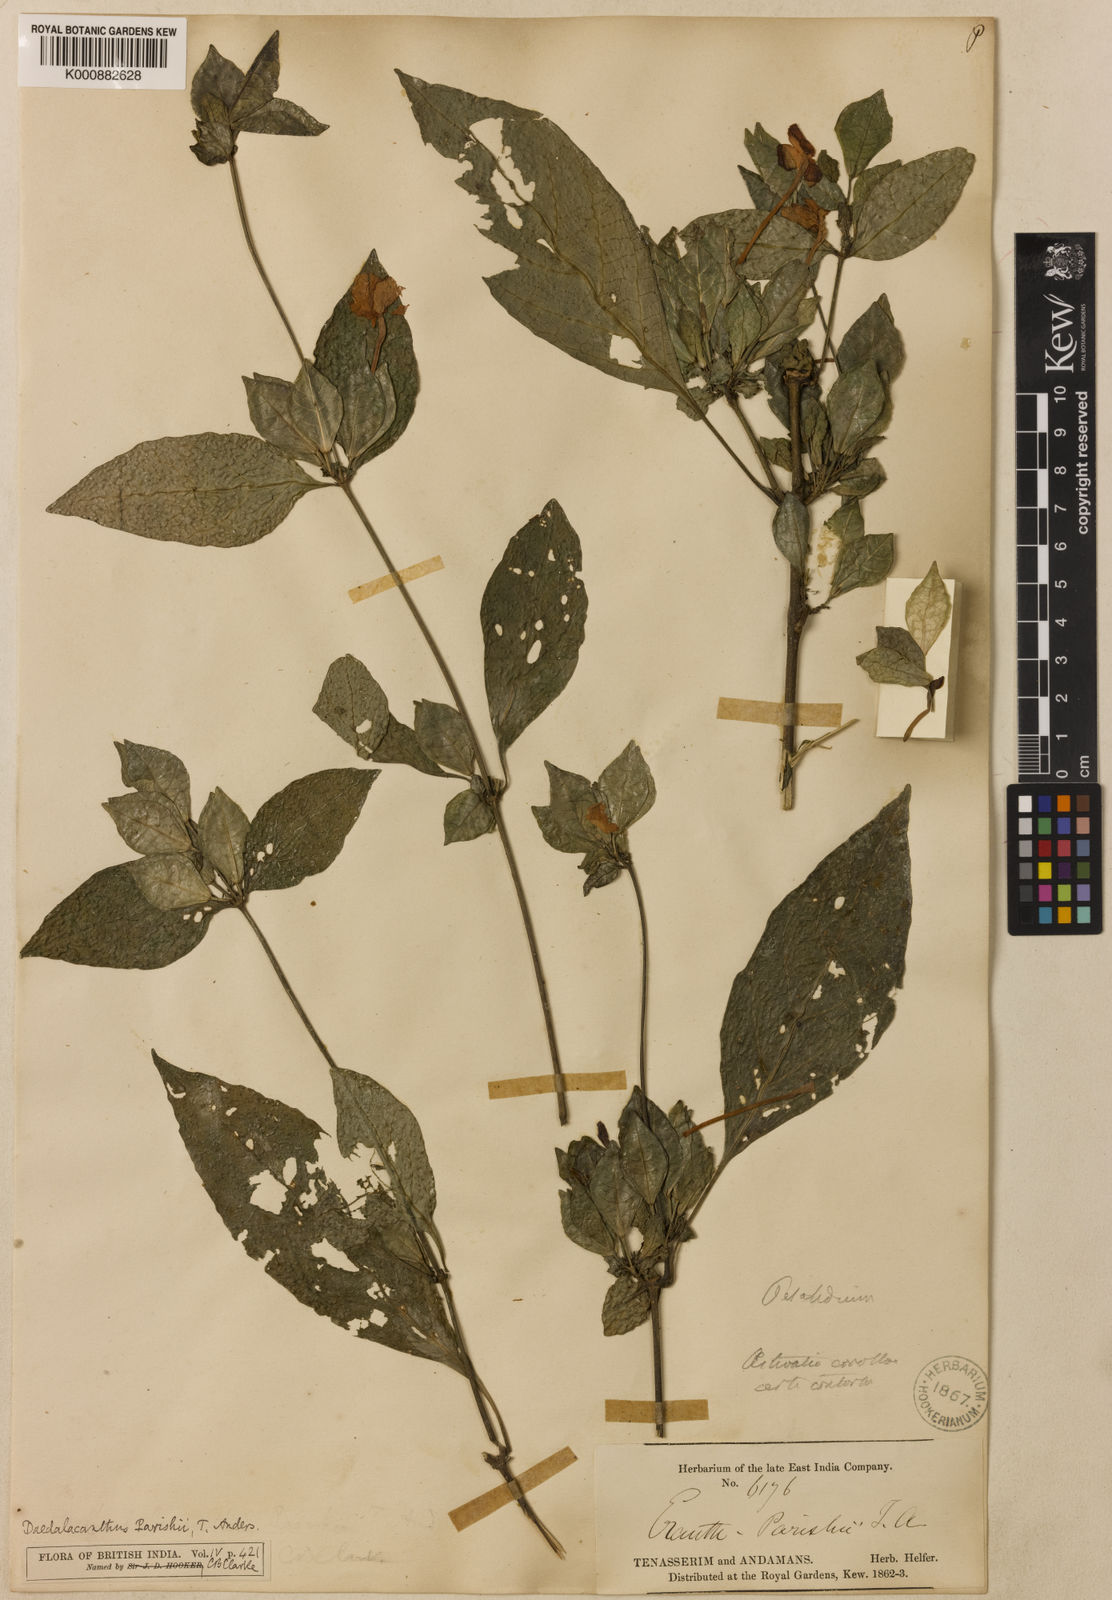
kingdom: Plantae
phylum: Tracheophyta
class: Magnoliopsida
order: Lamiales
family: Acanthaceae
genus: Pseuderanthemum
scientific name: Pseuderanthemum parishii
